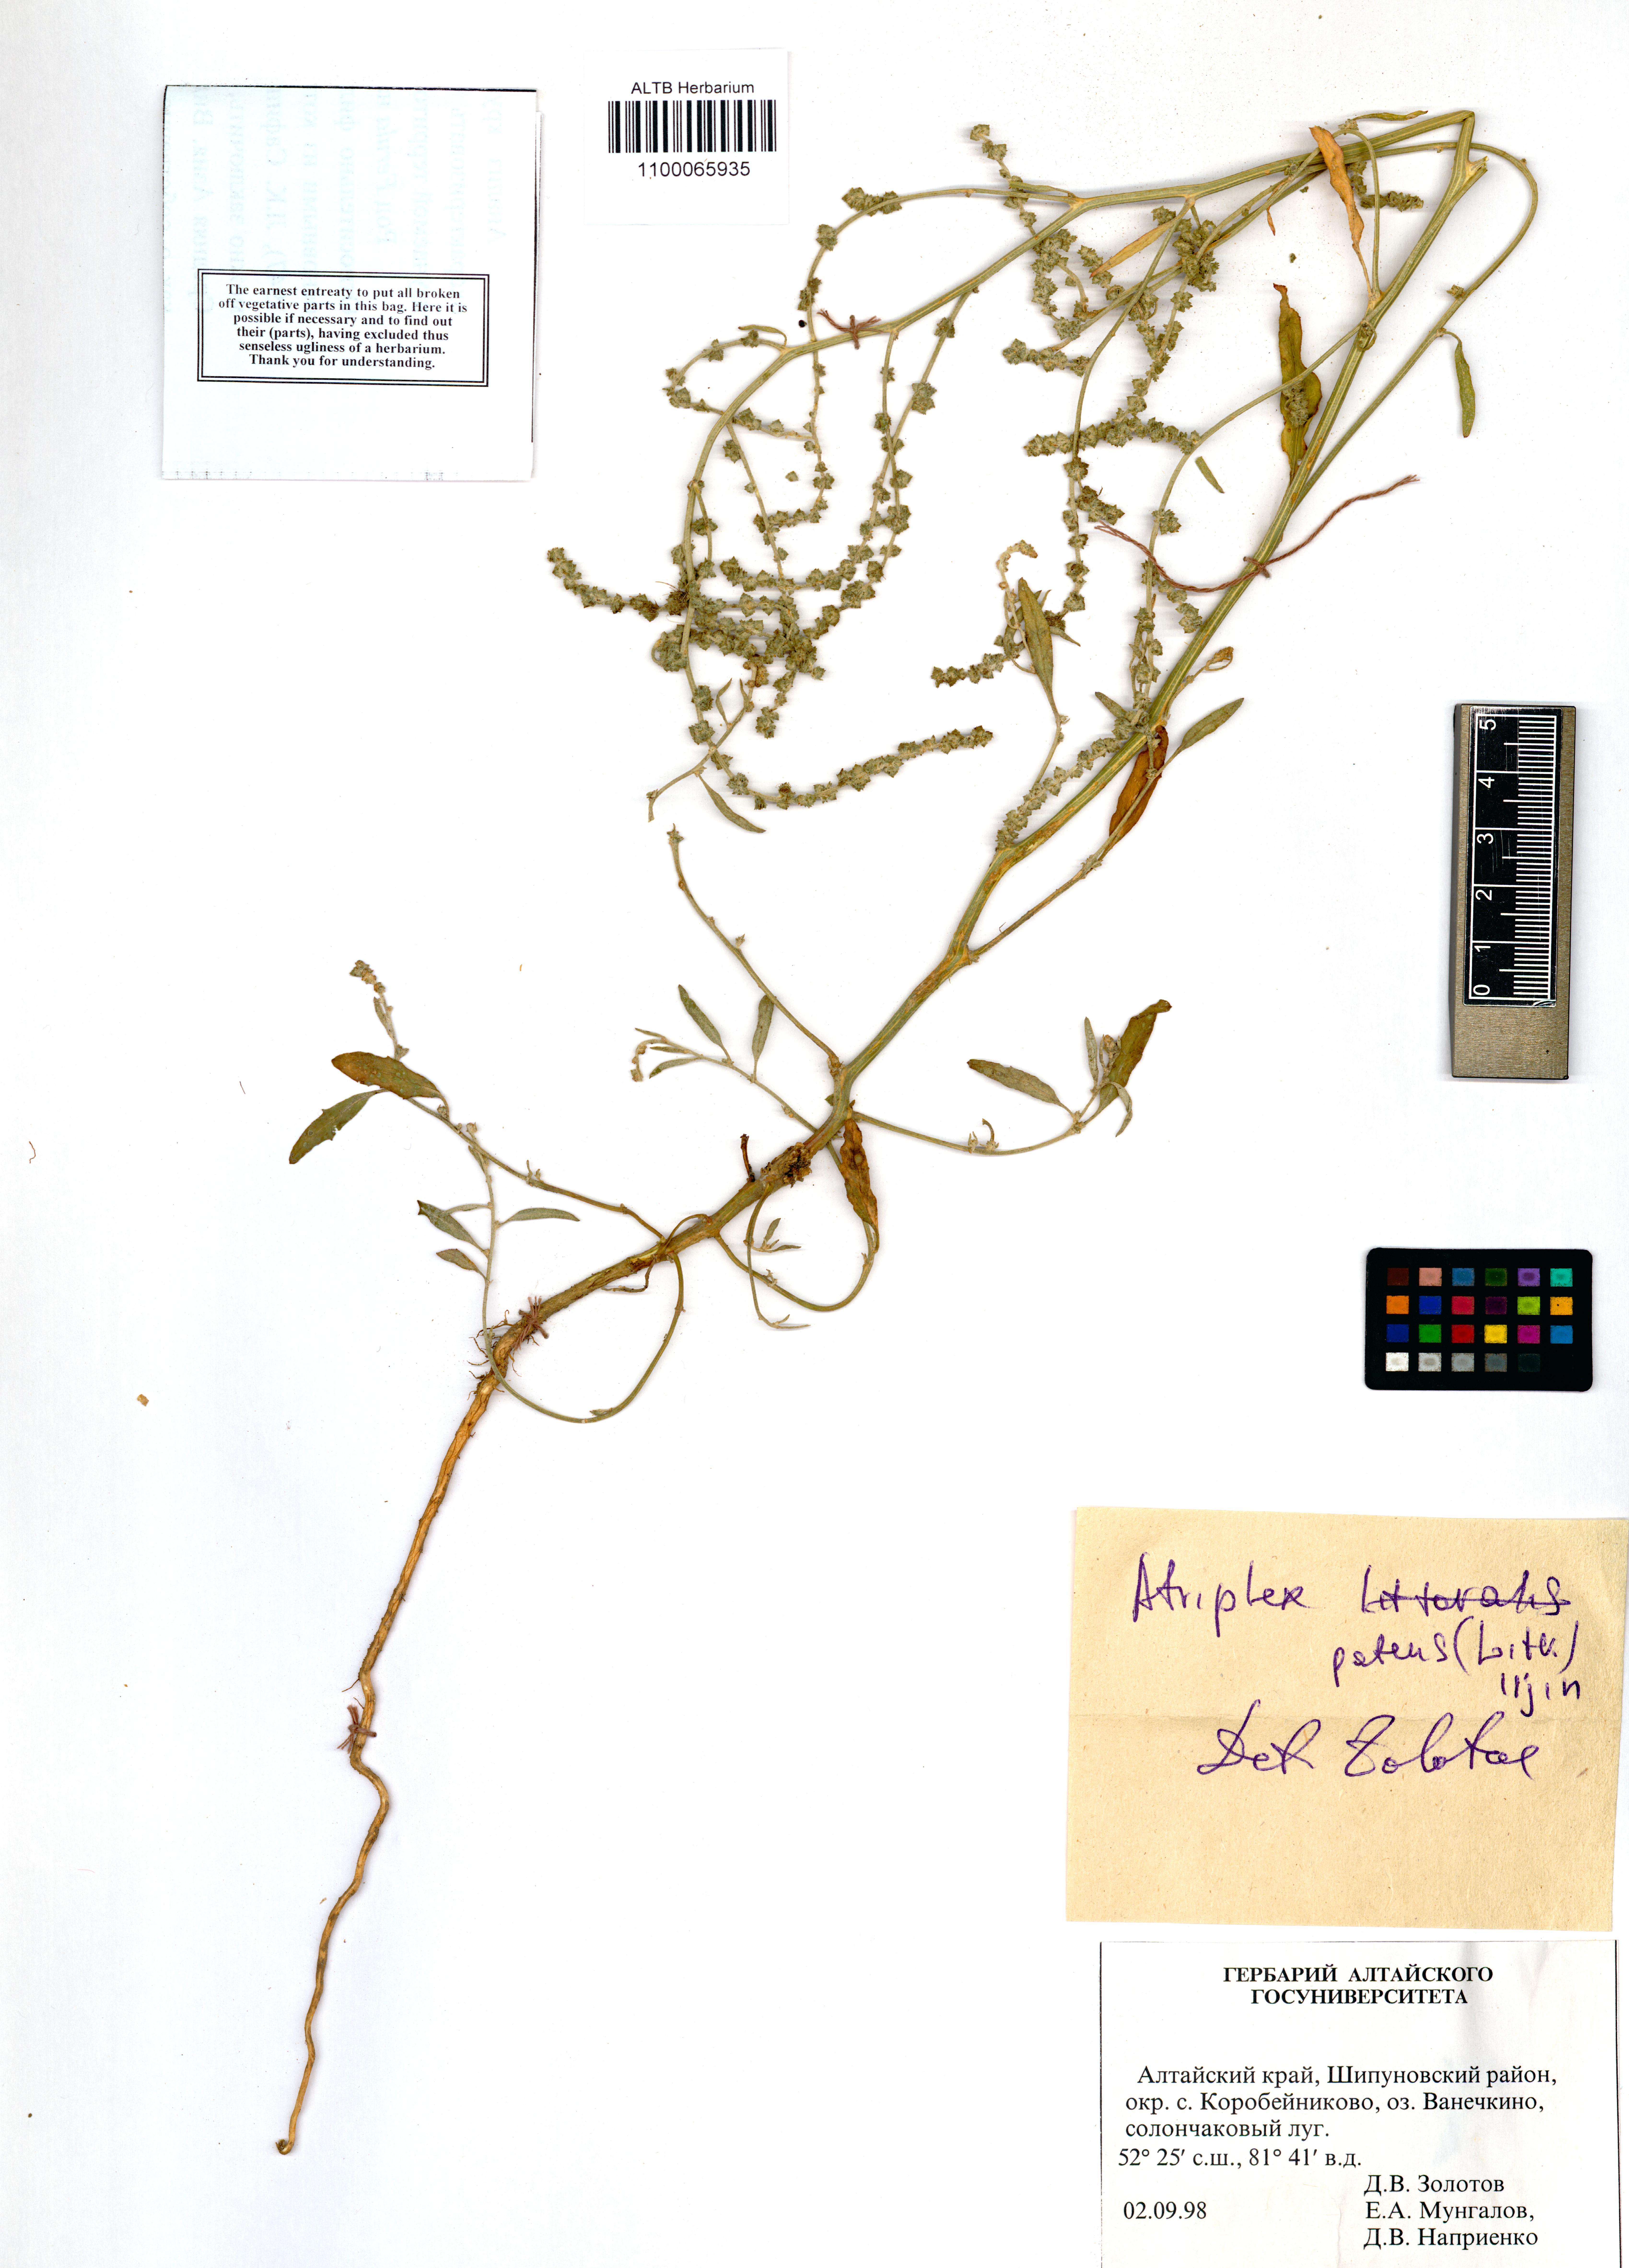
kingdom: Plantae
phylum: Tracheophyta
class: Magnoliopsida
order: Caryophyllales
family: Amaranthaceae
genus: Atriplex
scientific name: Atriplex patens
